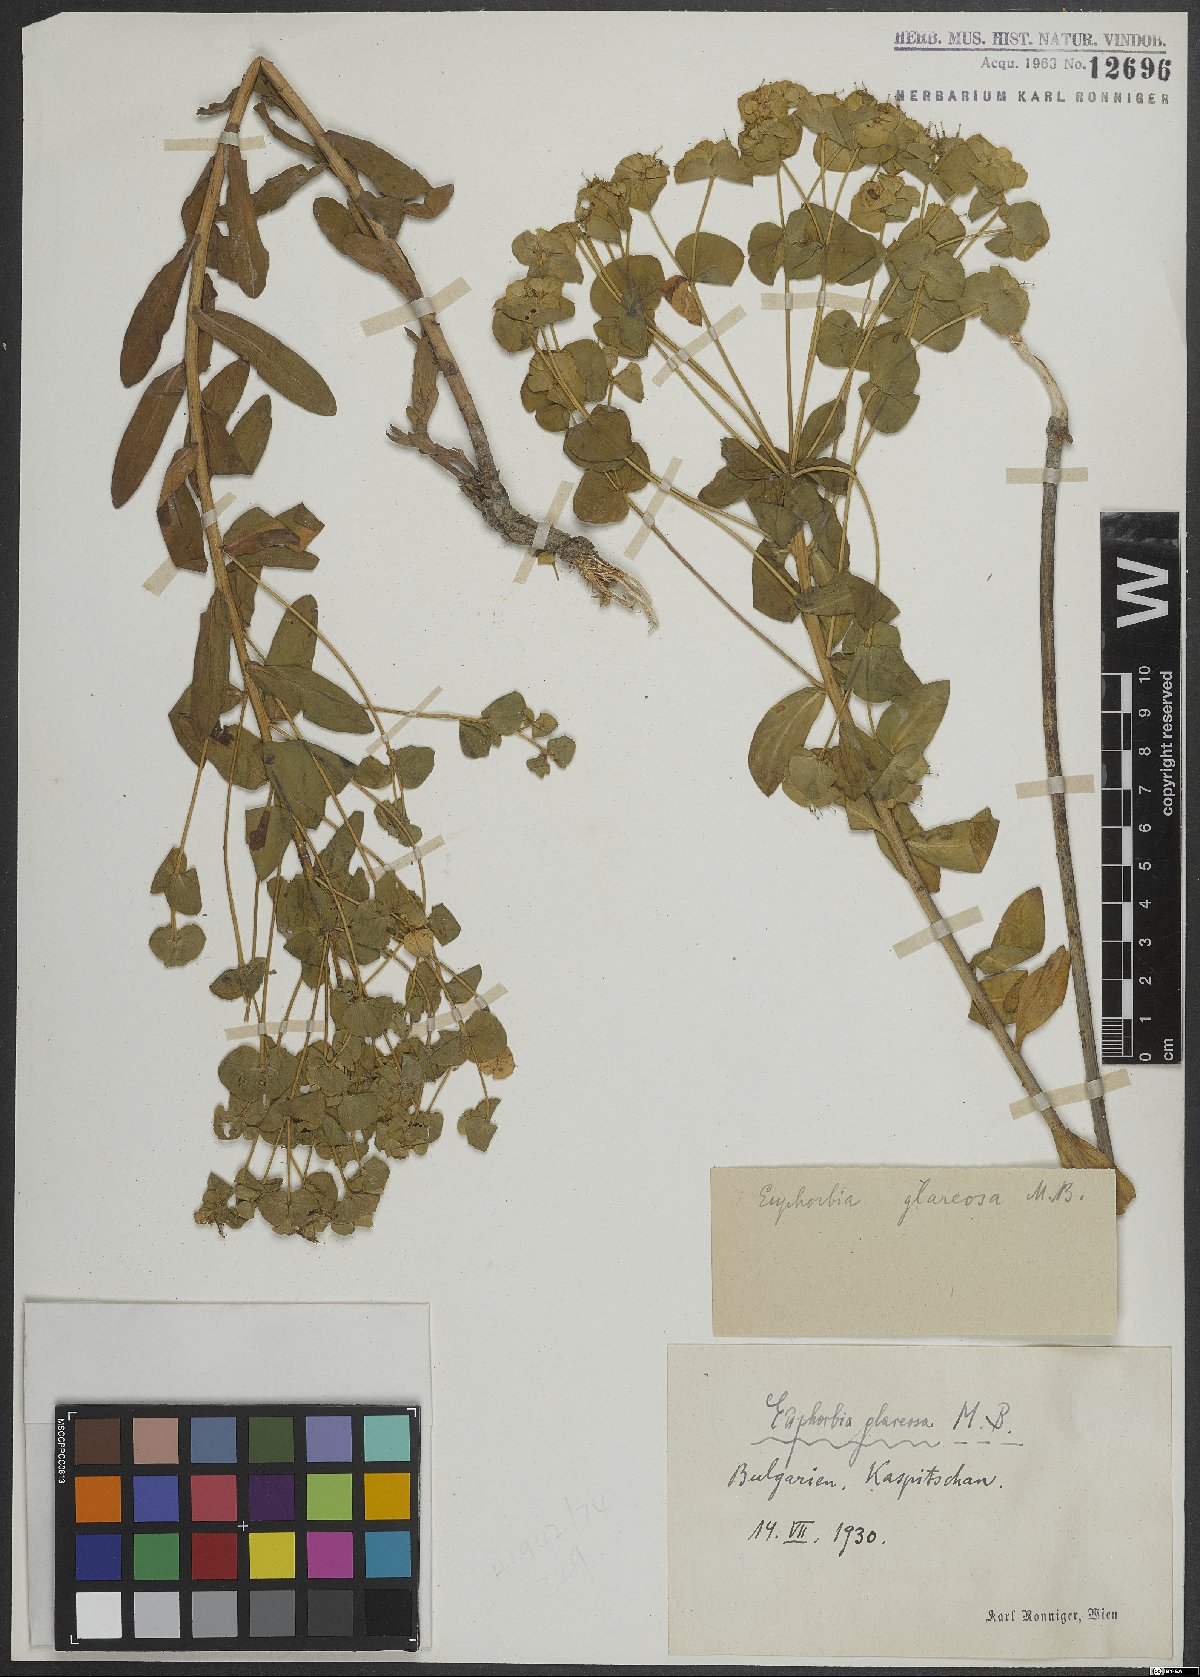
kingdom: Plantae
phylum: Tracheophyta
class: Magnoliopsida
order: Malpighiales
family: Euphorbiaceae
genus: Euphorbia
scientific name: Euphorbia glareosa
